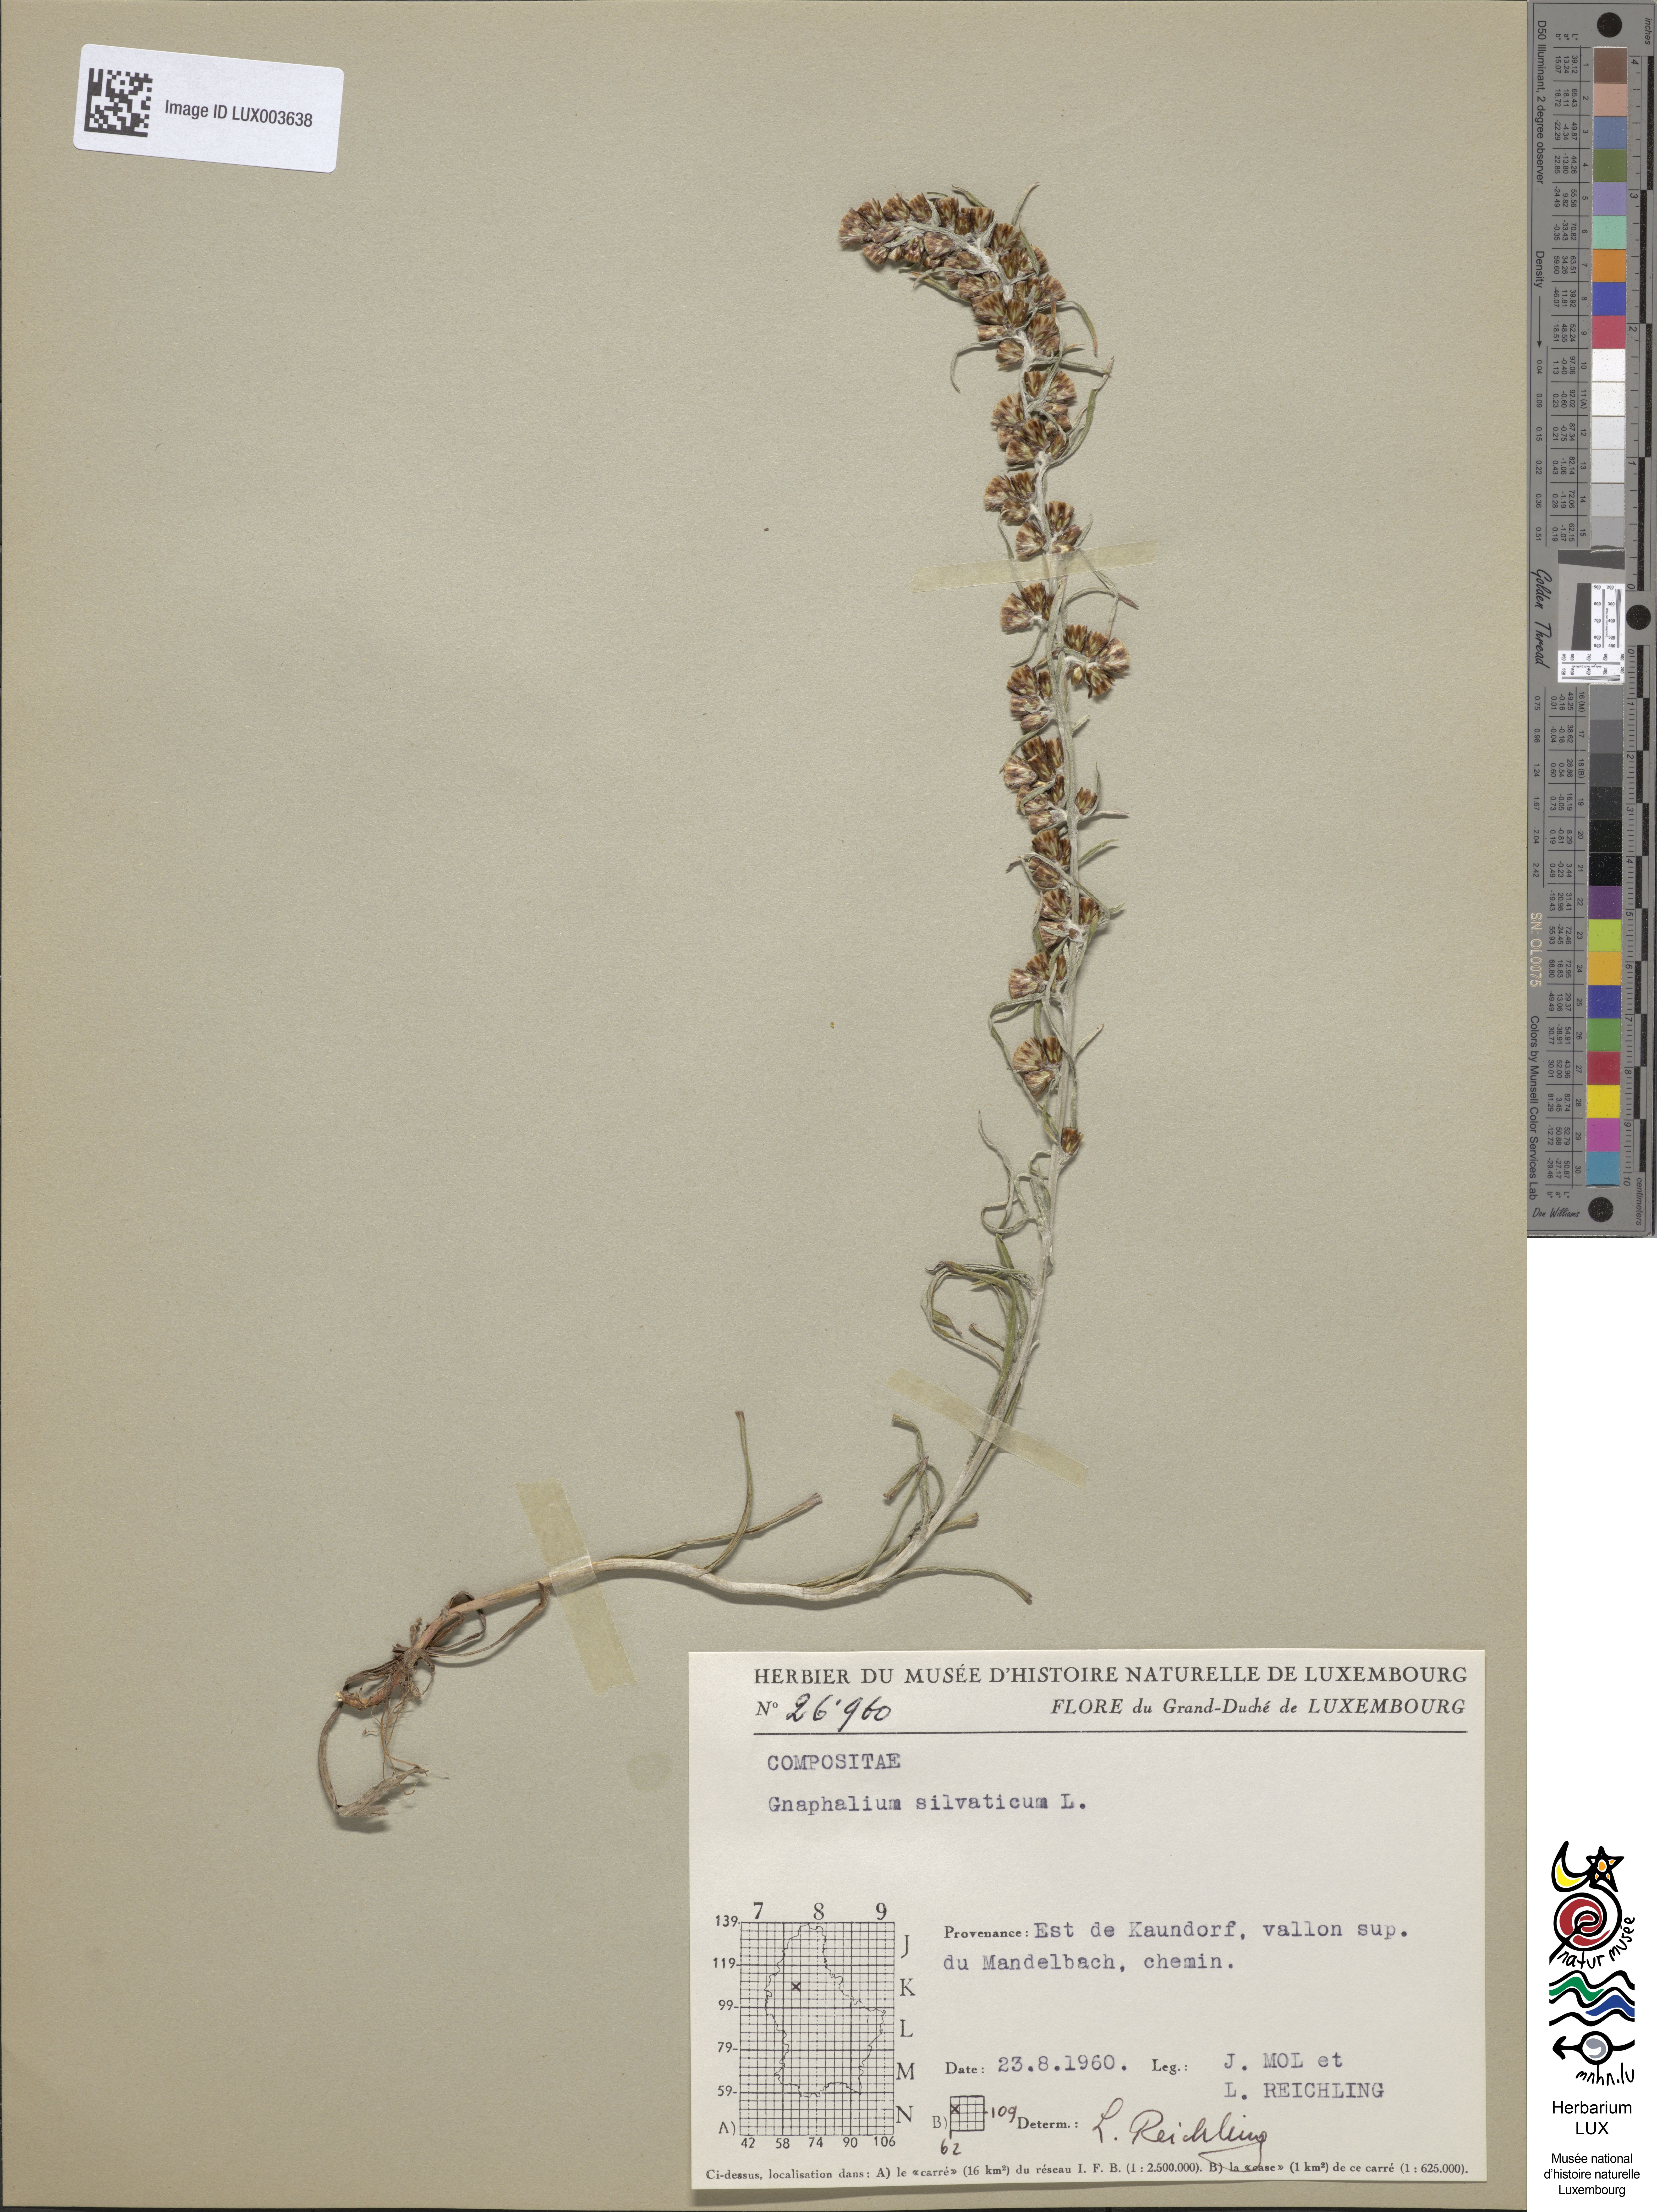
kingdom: Plantae
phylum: Tracheophyta
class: Magnoliopsida
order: Asterales
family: Asteraceae
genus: Omalotheca
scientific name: Omalotheca sylvatica
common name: Heath cudweed
